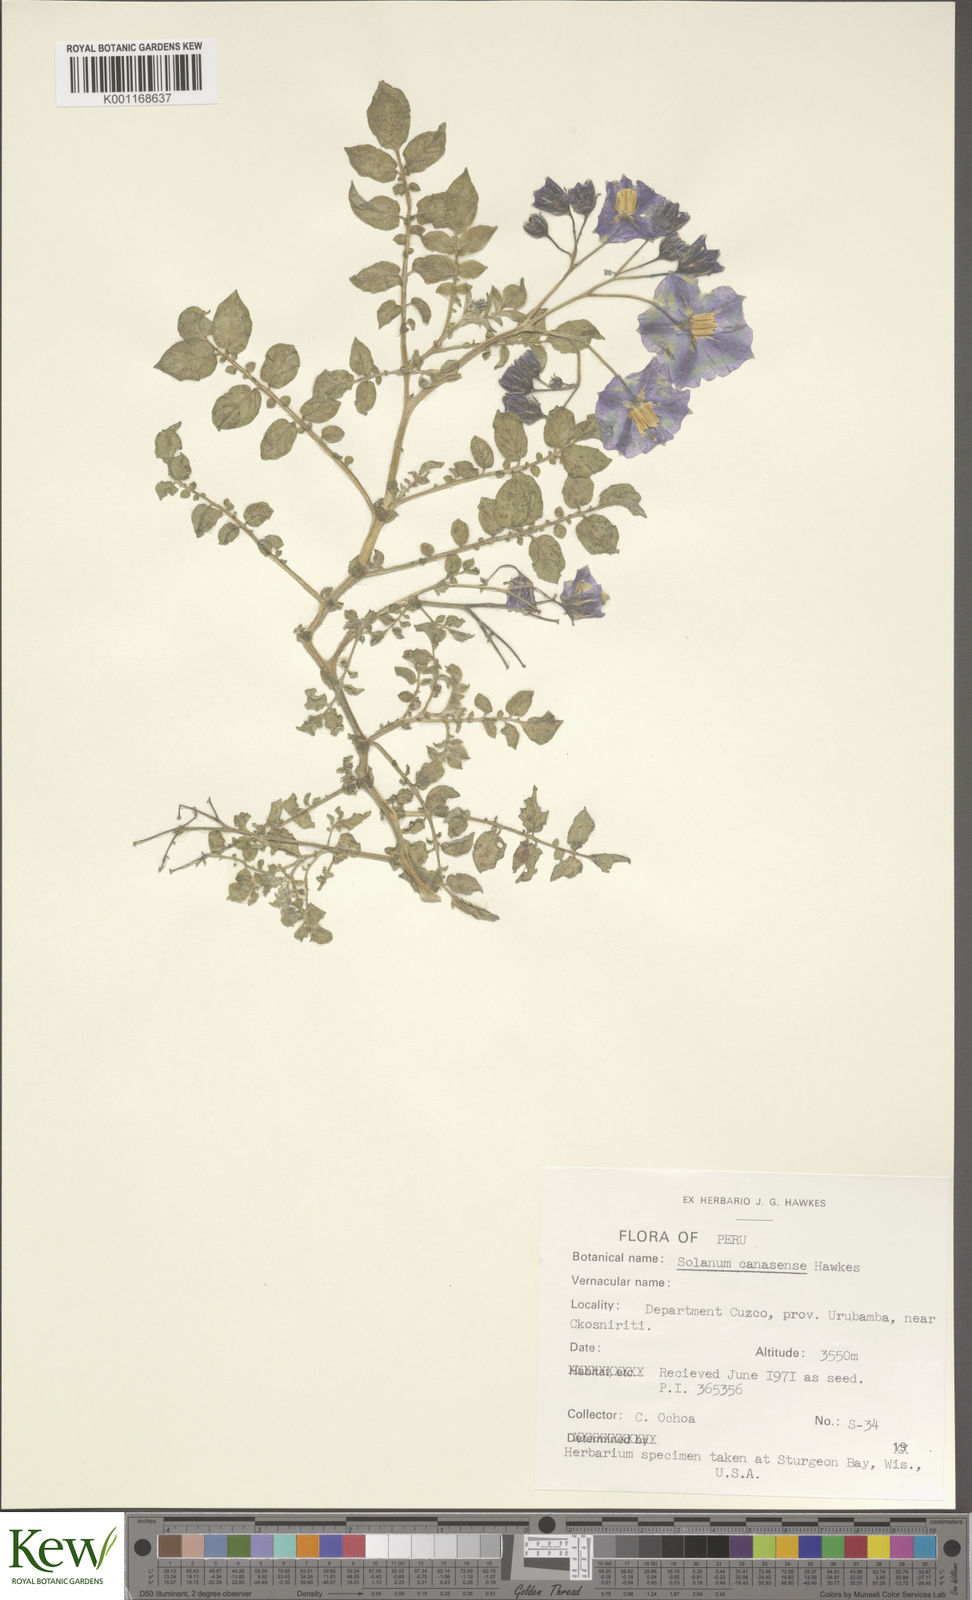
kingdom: Plantae
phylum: Tracheophyta
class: Magnoliopsida
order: Solanales
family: Solanaceae
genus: Solanum
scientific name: Solanum candolleanum
